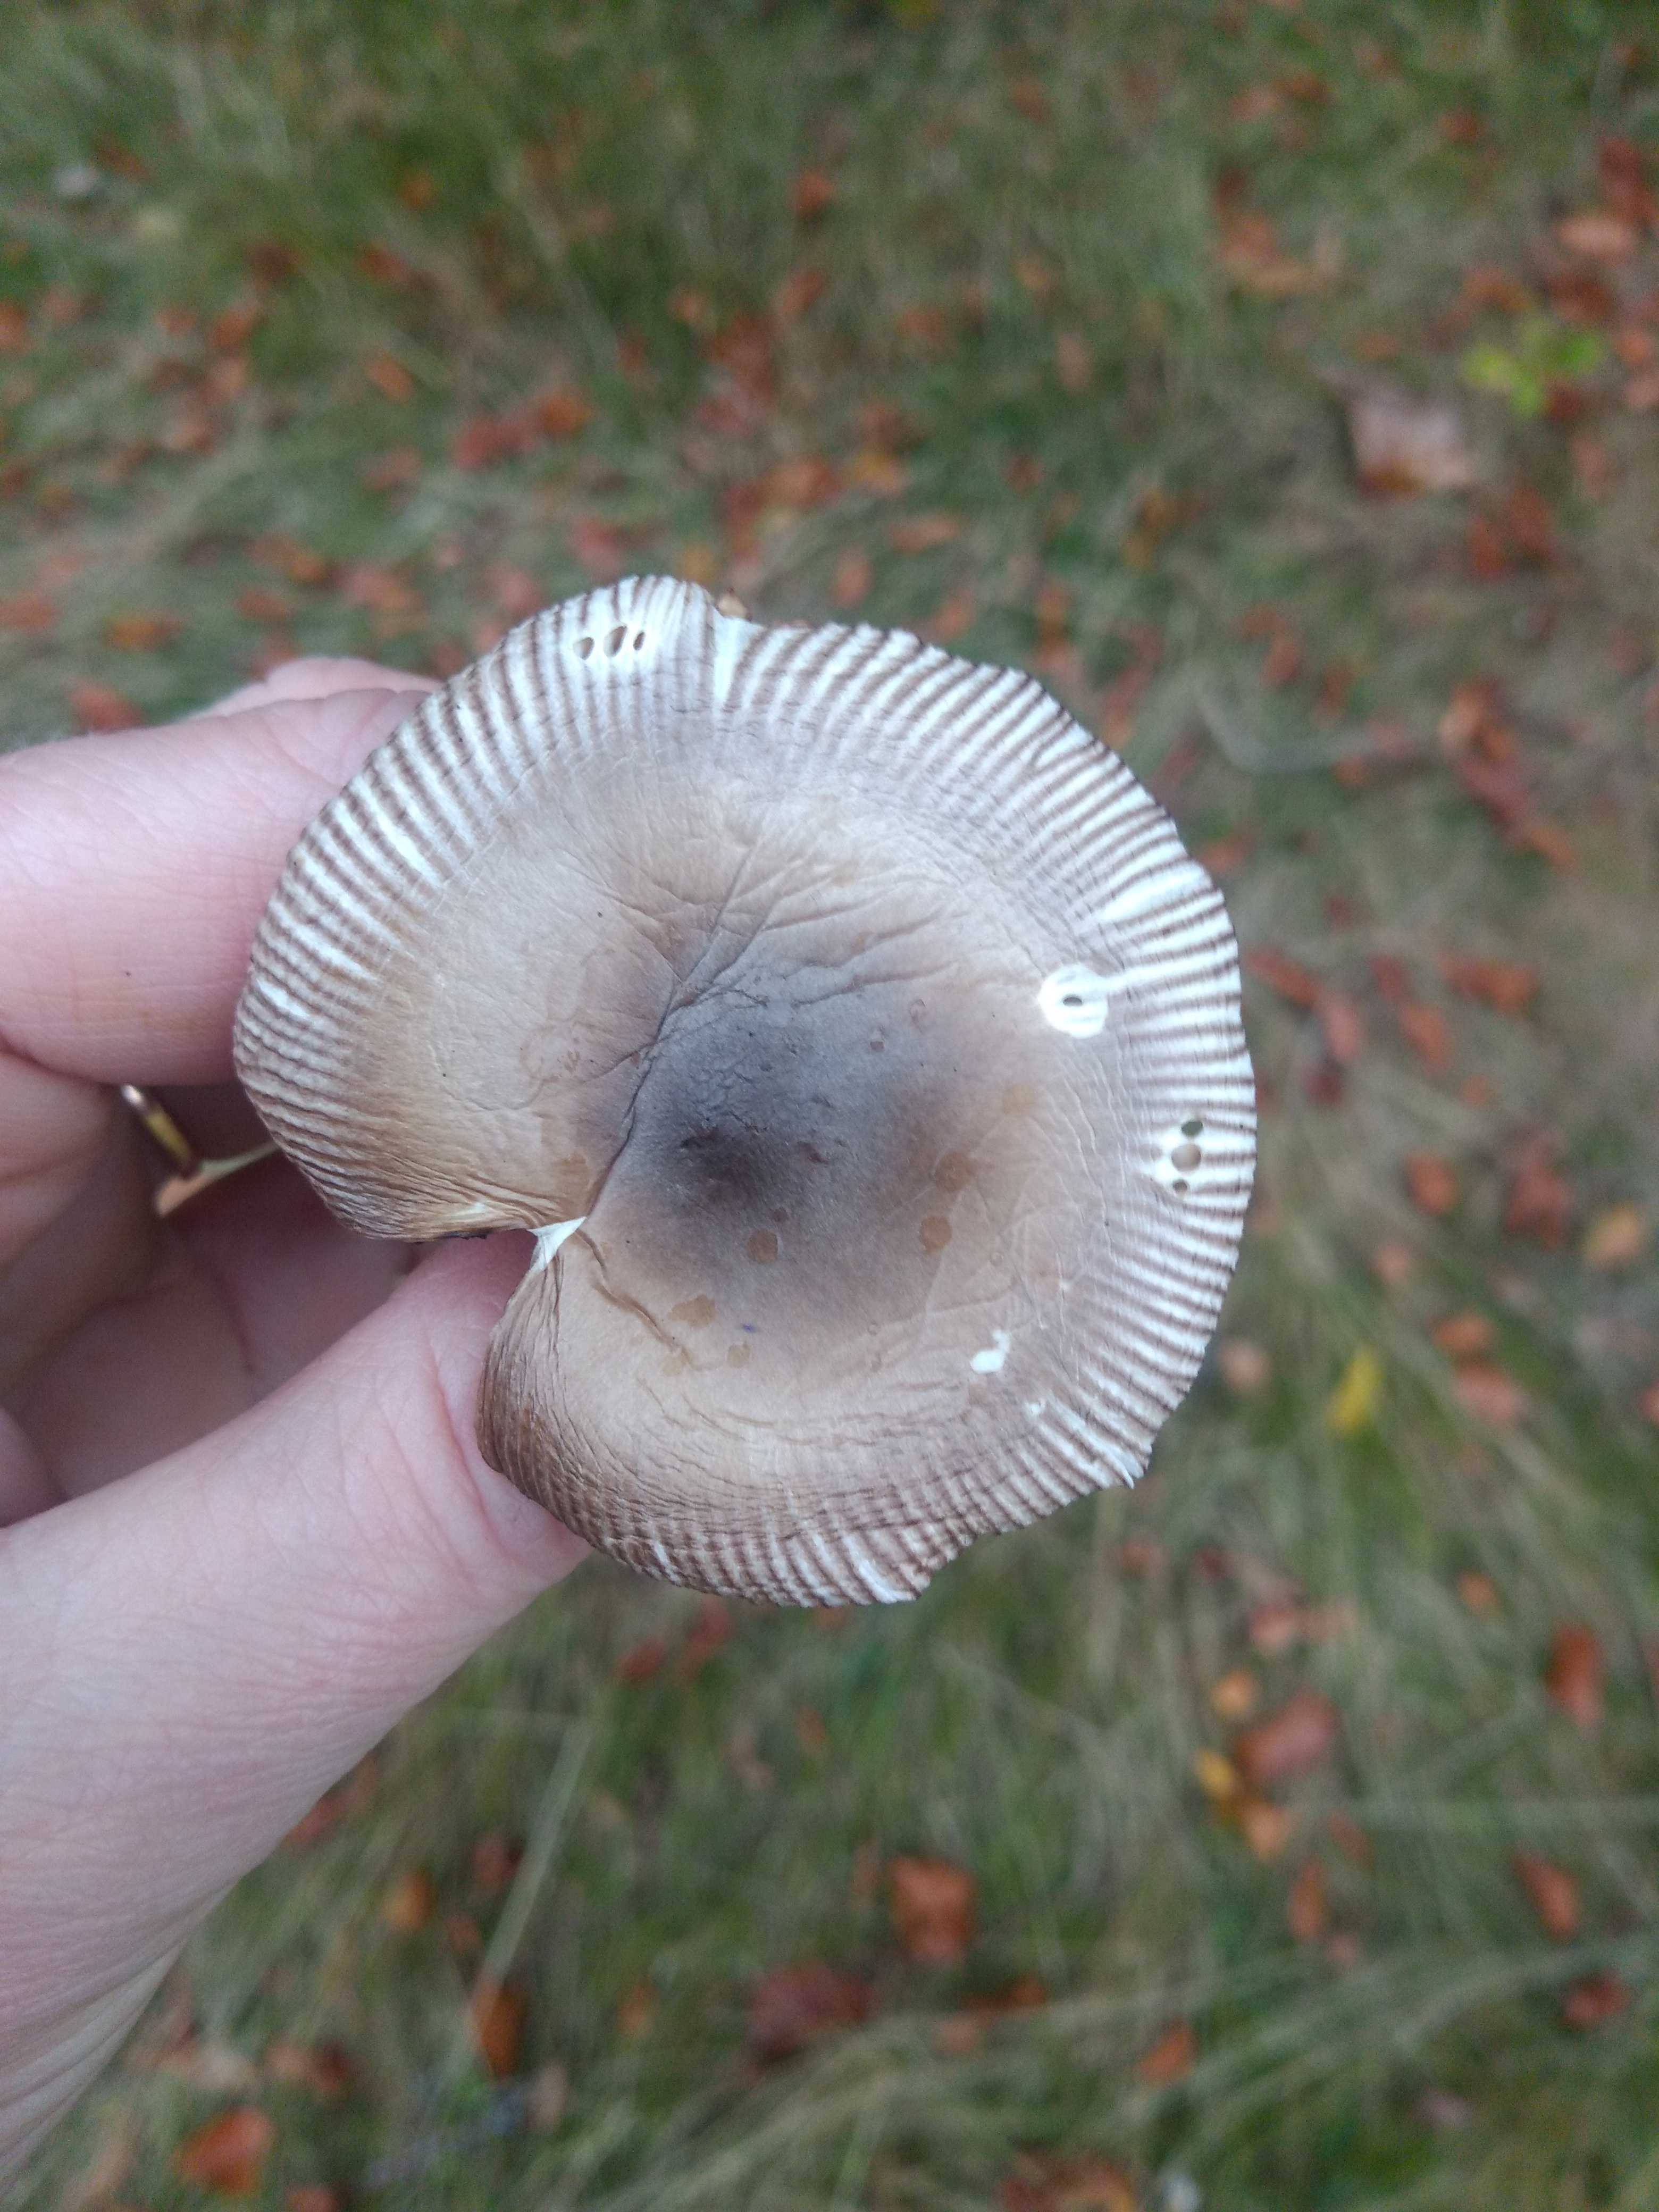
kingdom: Fungi
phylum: Basidiomycota
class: Agaricomycetes
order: Agaricales
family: Amanitaceae
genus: Amanita
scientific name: Amanita
